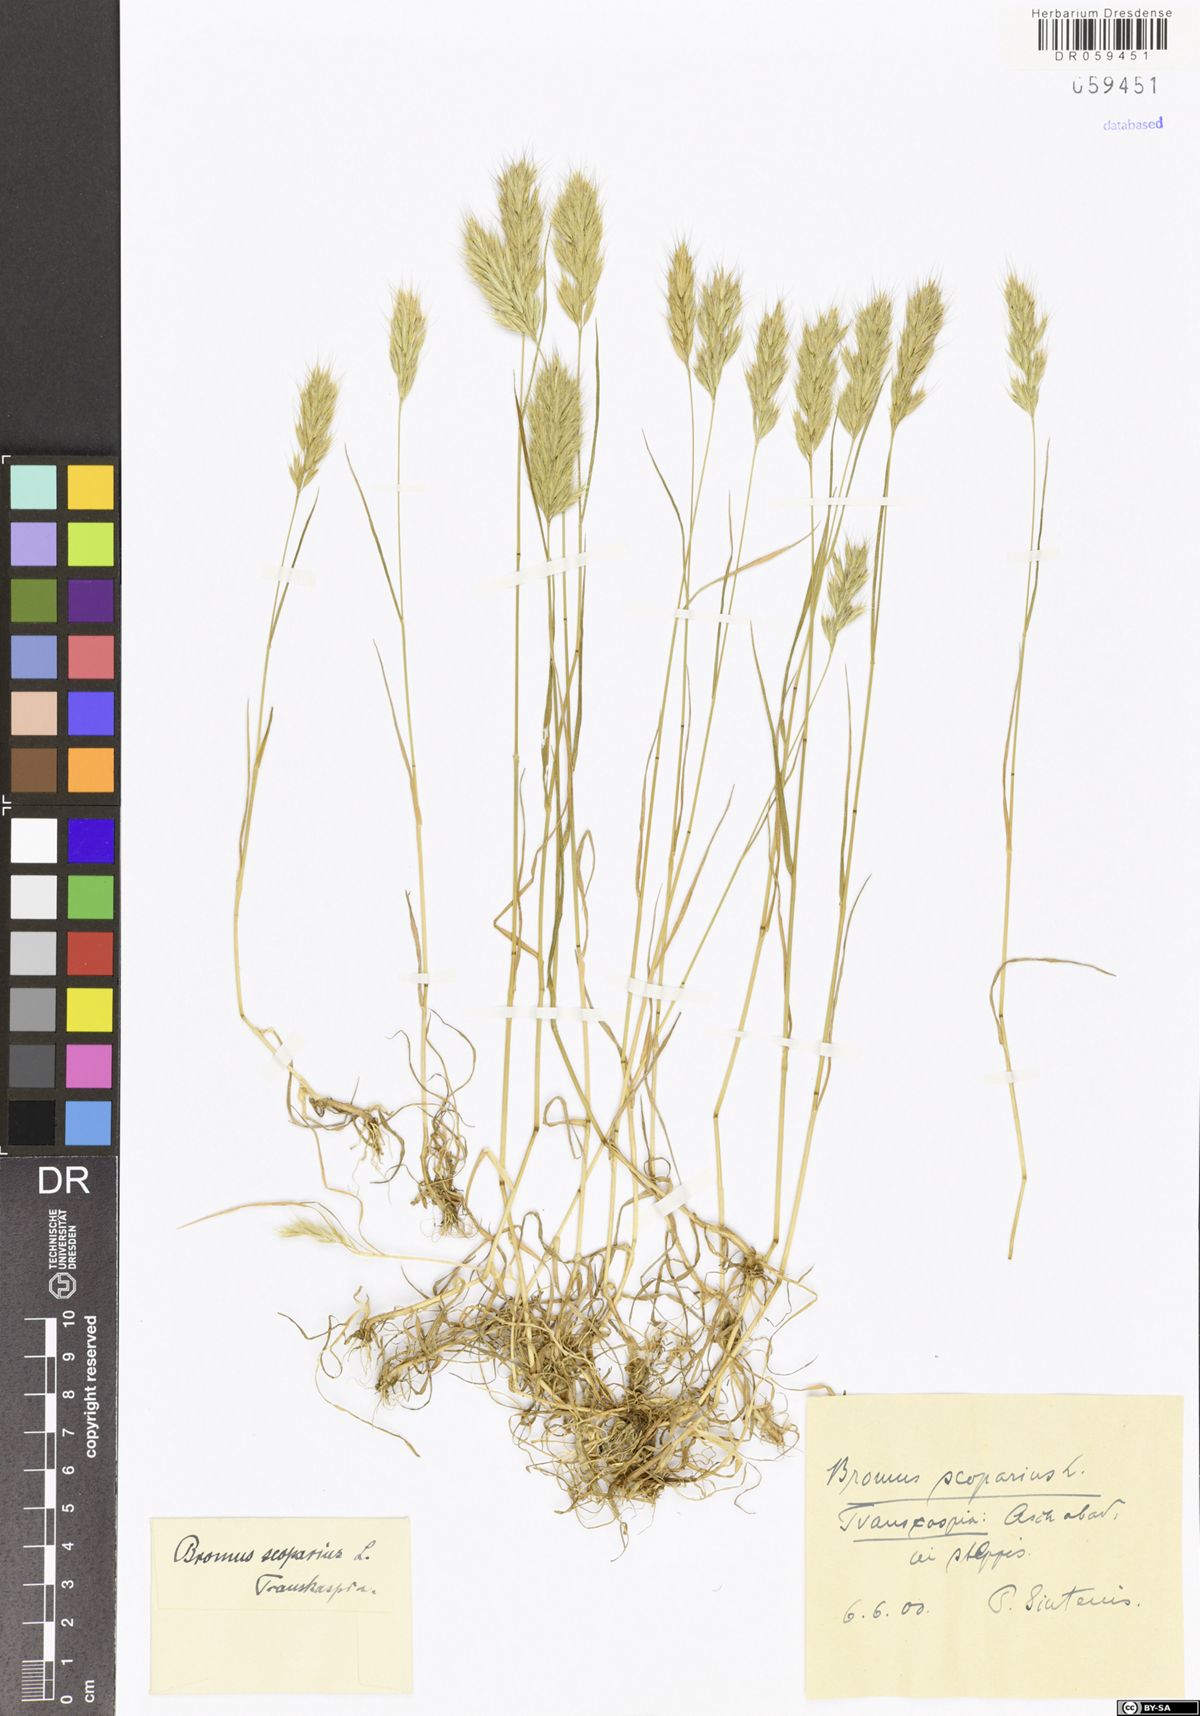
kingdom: Plantae
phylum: Tracheophyta
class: Liliopsida
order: Poales
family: Poaceae
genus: Bromus
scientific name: Bromus scoparius
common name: Broom brome
